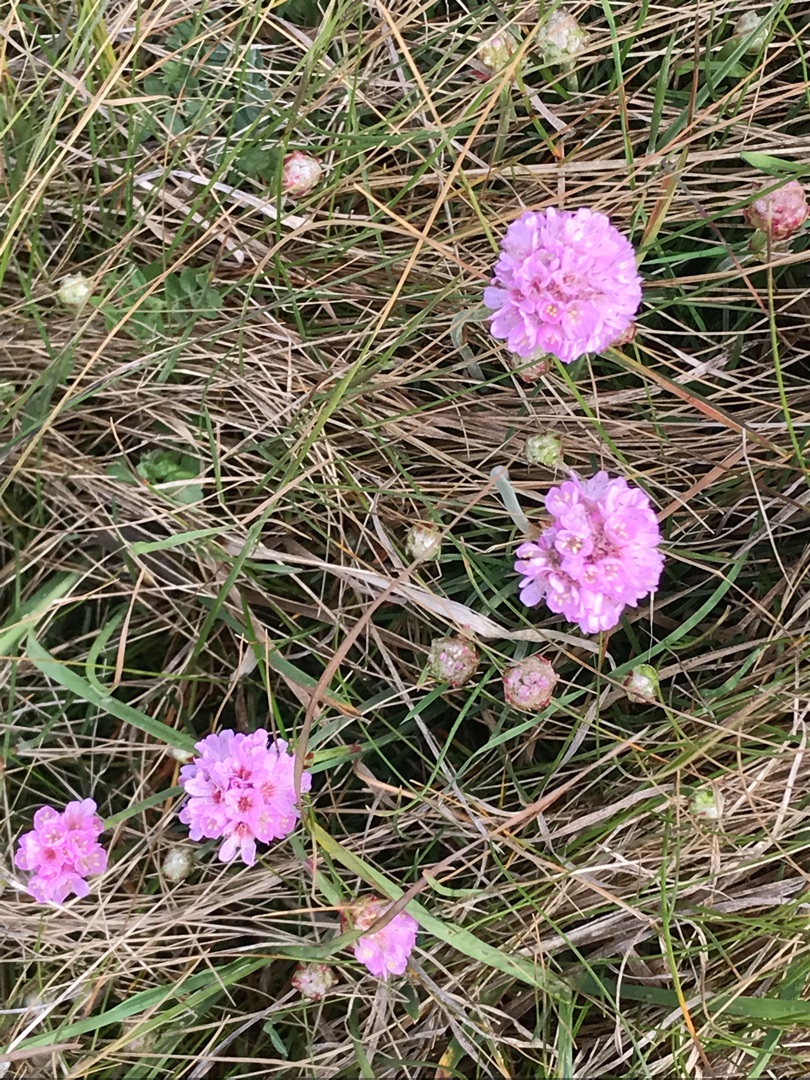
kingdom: Plantae
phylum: Tracheophyta
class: Magnoliopsida
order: Caryophyllales
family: Plumbaginaceae
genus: Armeria
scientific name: Armeria maritima
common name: Engelskgræs
